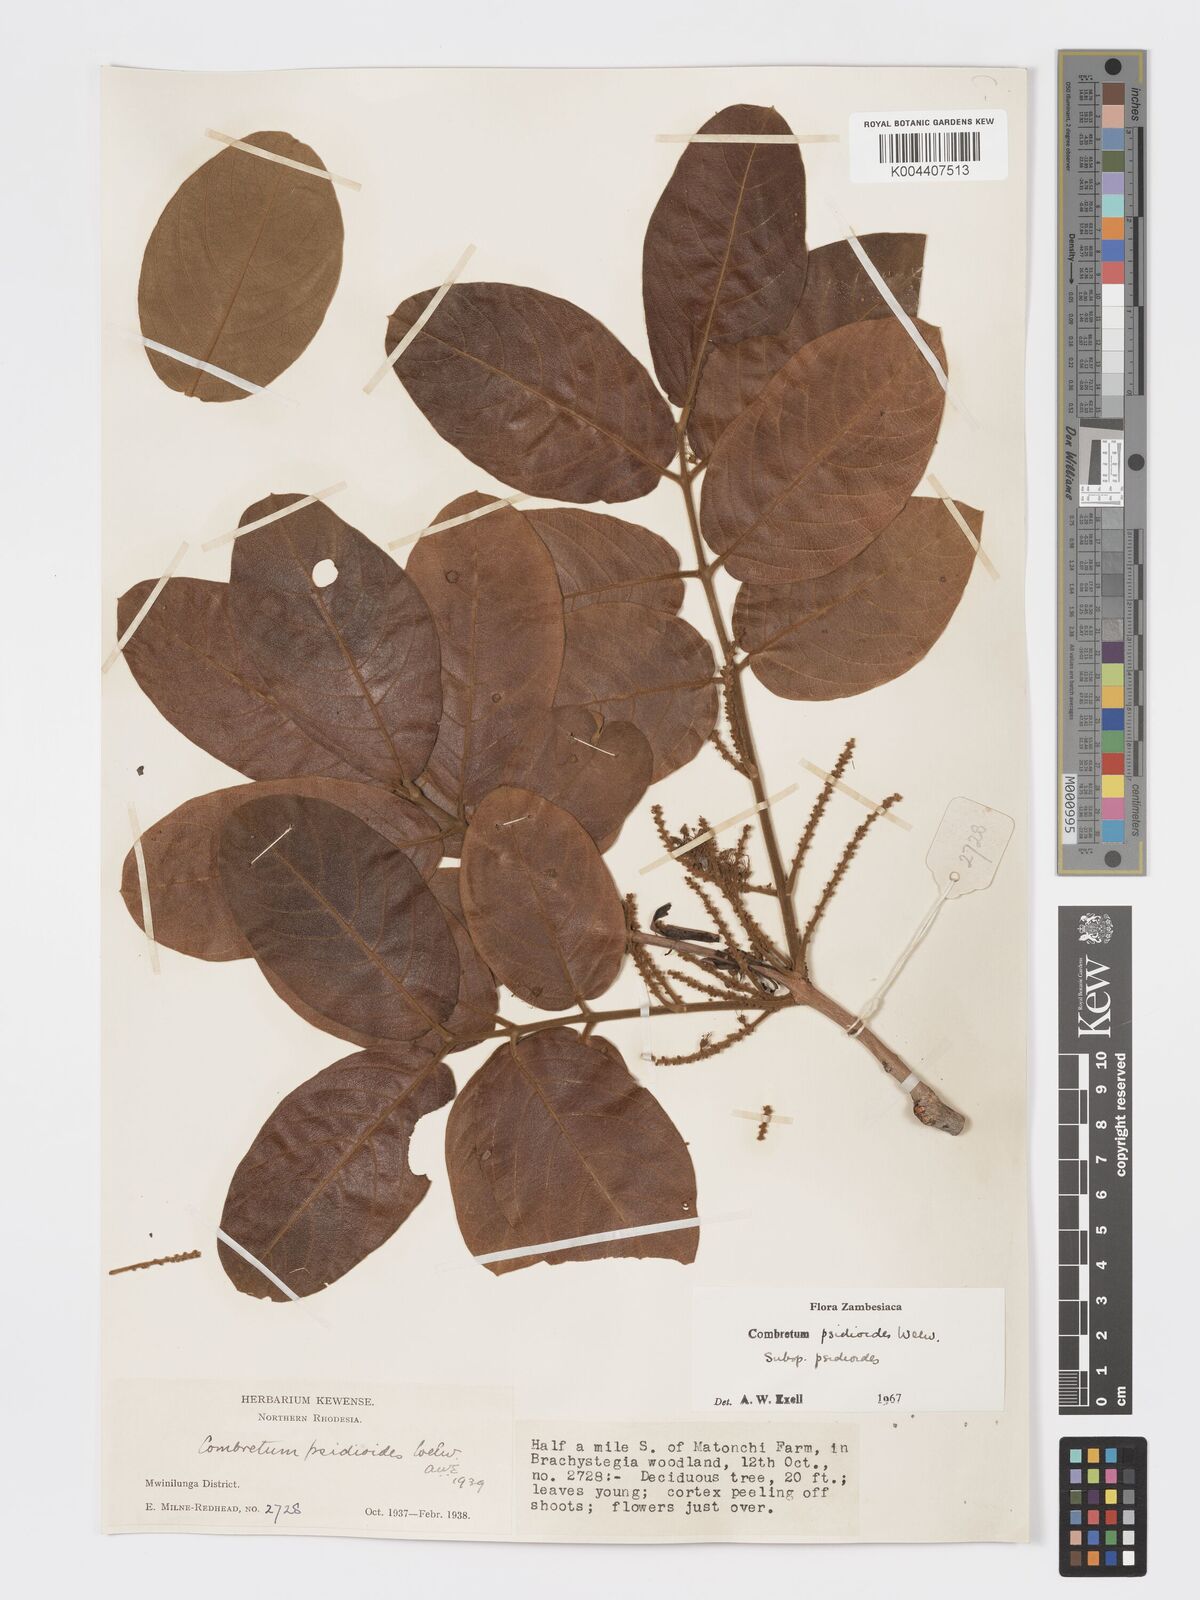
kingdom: Plantae
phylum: Tracheophyta
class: Magnoliopsida
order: Myrtales
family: Combretaceae
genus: Combretum
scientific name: Combretum psidioides
